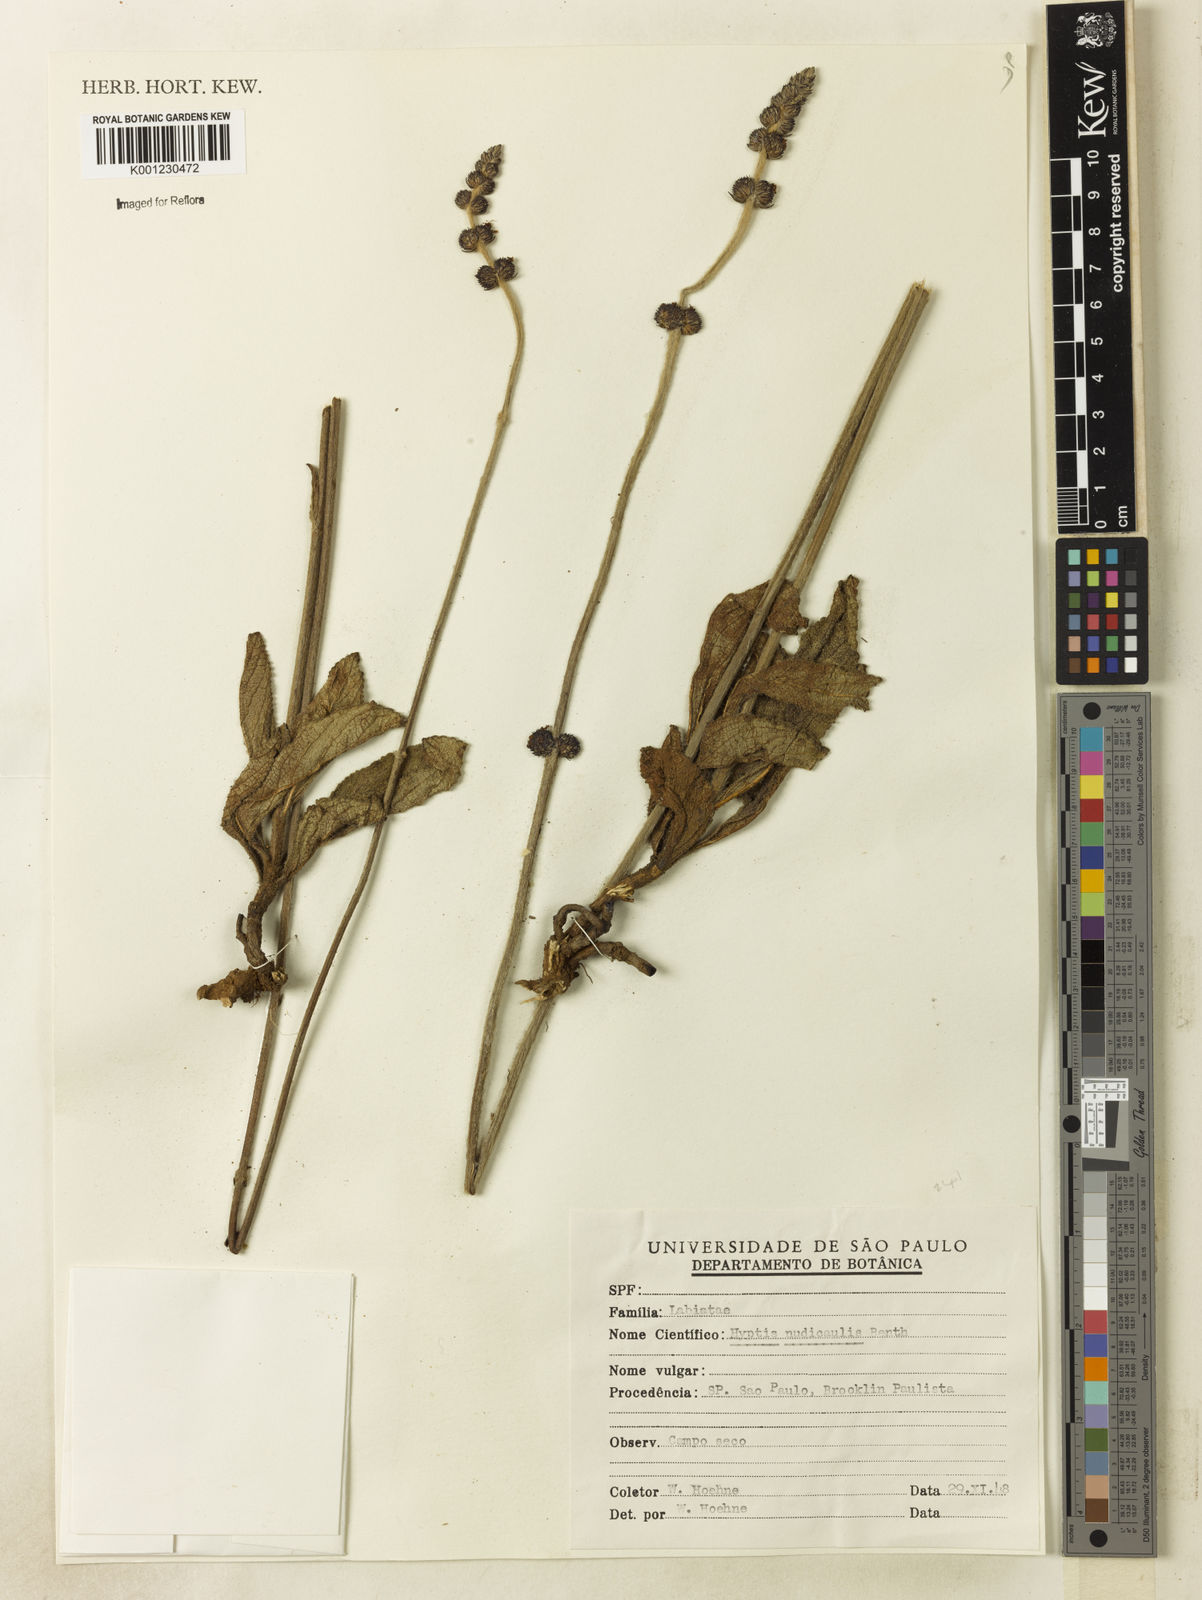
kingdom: Plantae
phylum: Tracheophyta
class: Magnoliopsida
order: Lamiales
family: Lamiaceae
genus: Hyptis
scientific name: Hyptis nudicaulis
